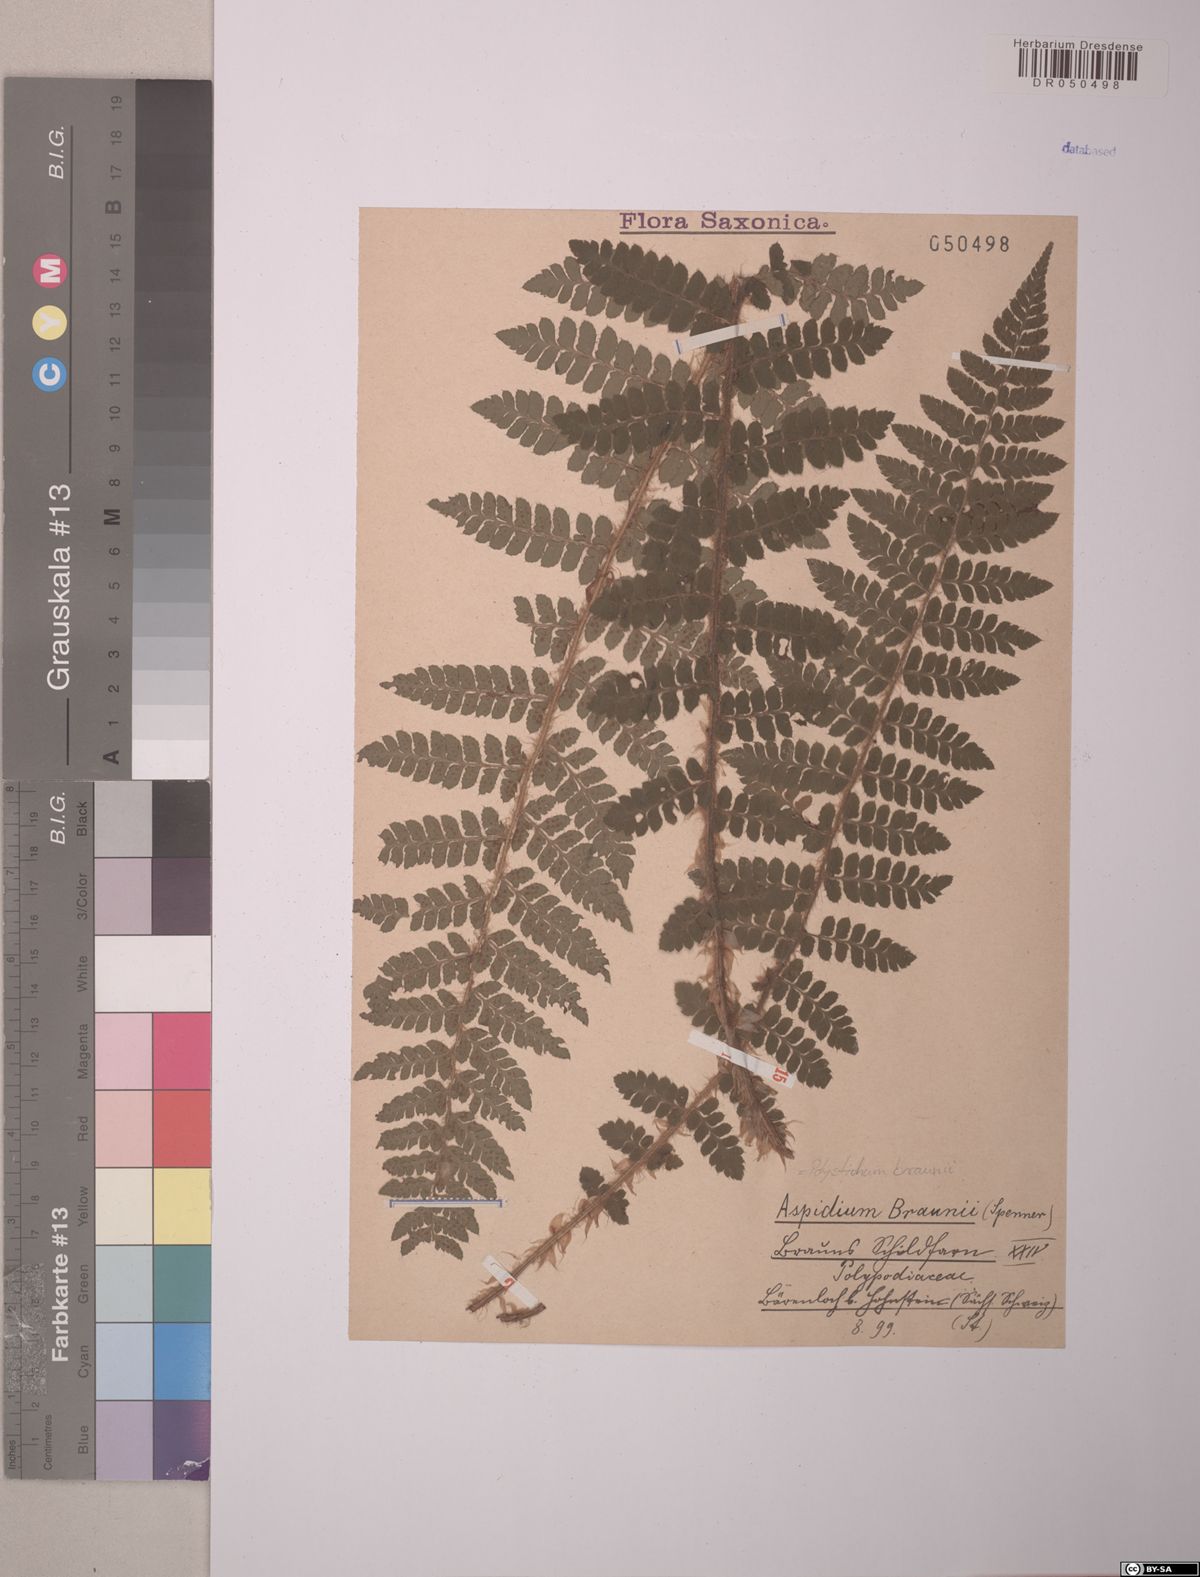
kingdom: Plantae
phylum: Tracheophyta
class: Polypodiopsida
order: Polypodiales
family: Dryopteridaceae
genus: Polystichum
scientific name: Polystichum braunii
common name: Braun's holly fern
